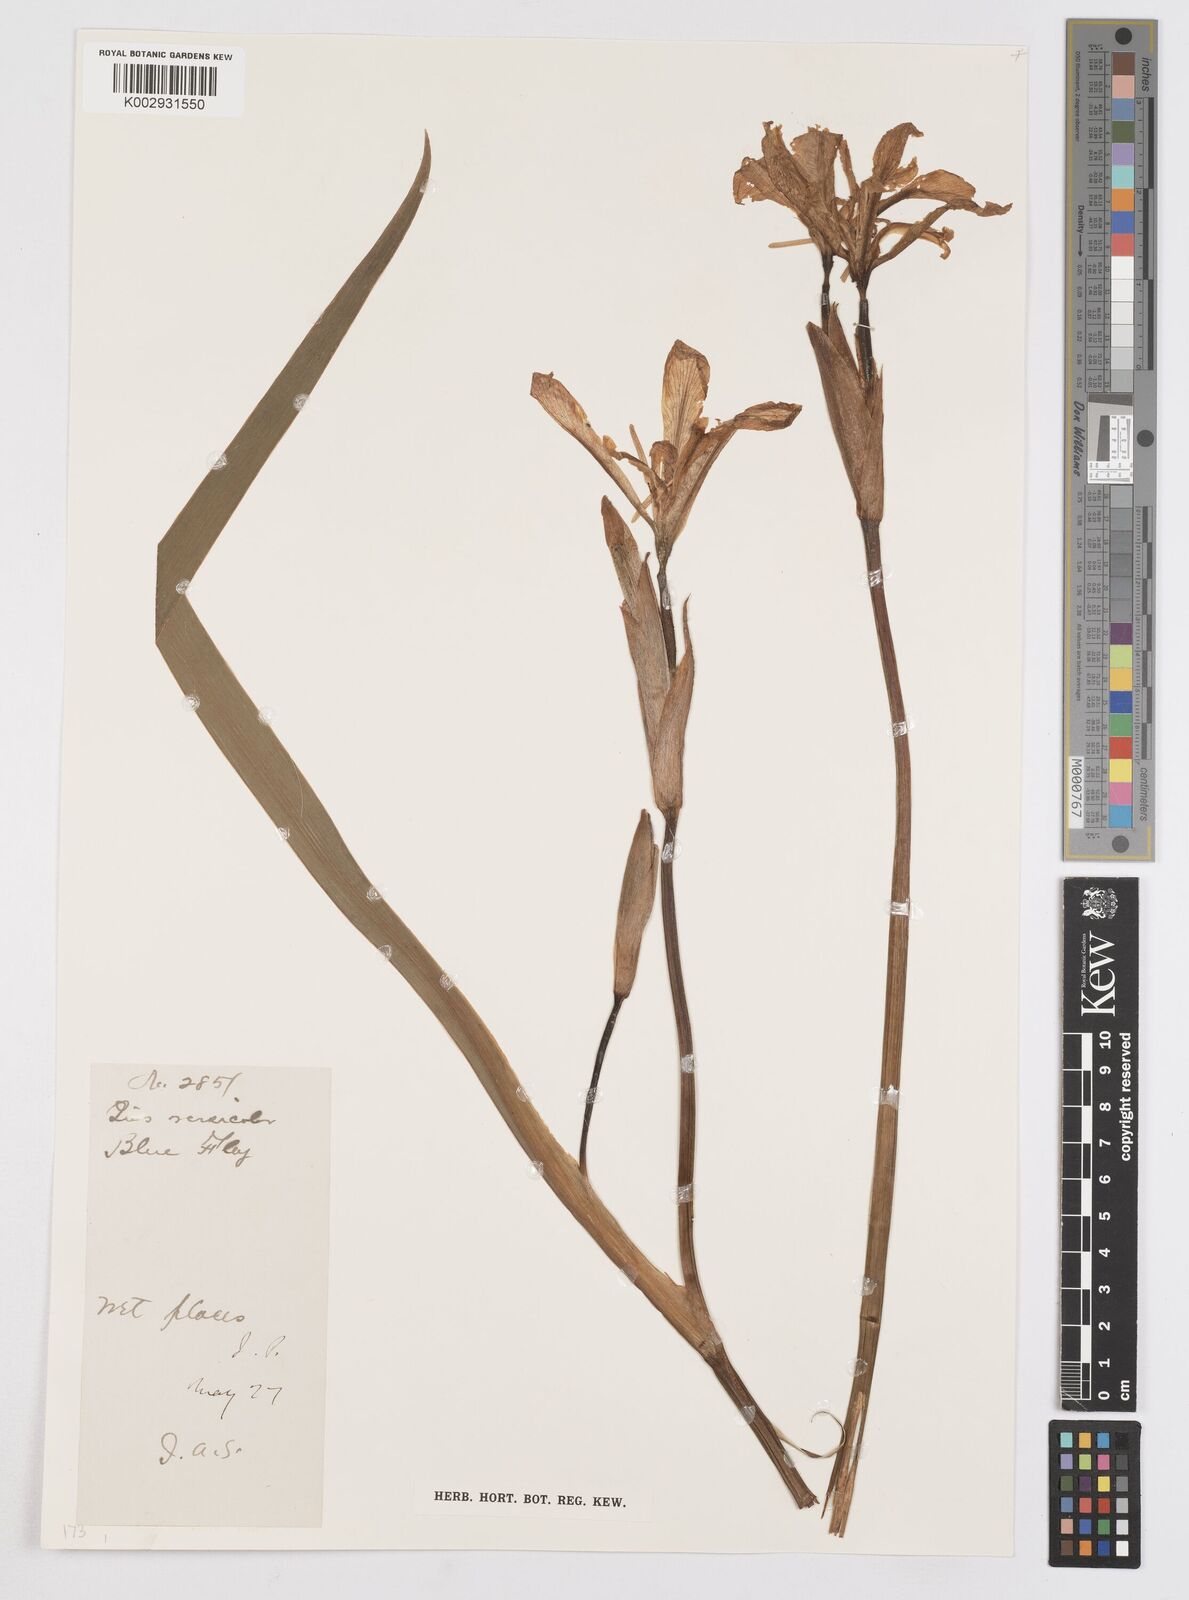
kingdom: Plantae
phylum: Tracheophyta
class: Liliopsida
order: Asparagales
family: Iridaceae
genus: Iris
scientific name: Iris versicolor
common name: Purple iris
